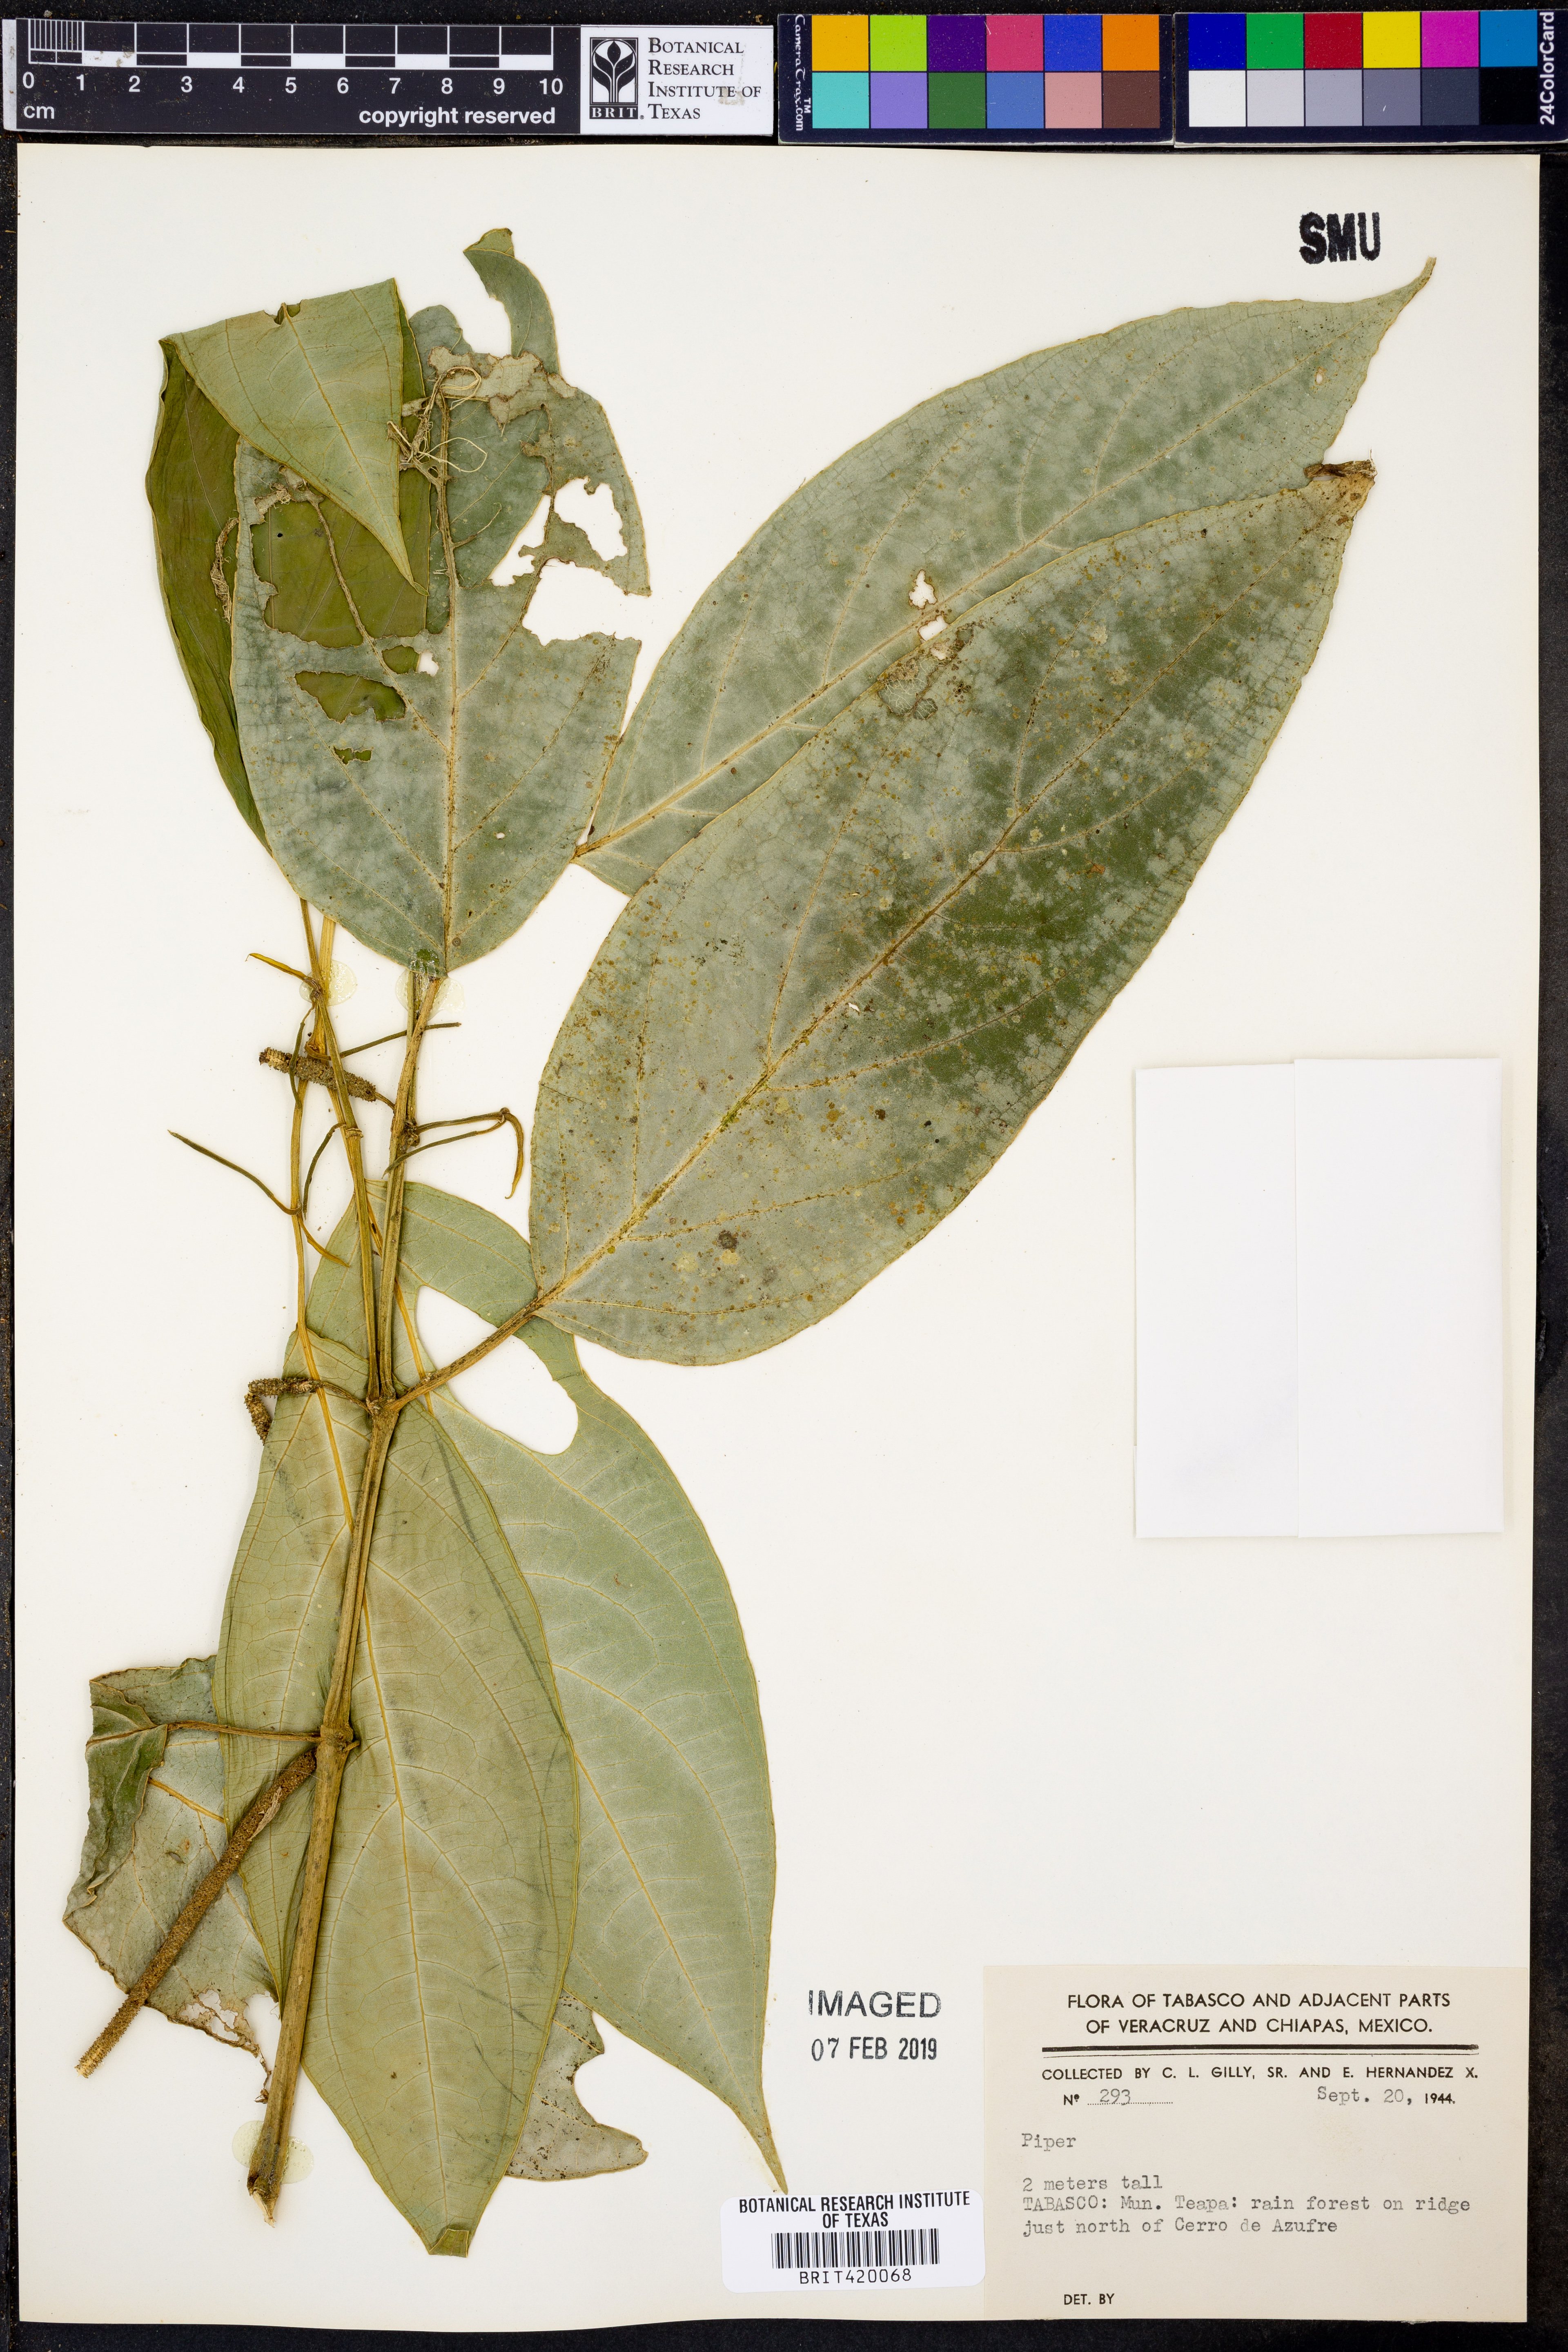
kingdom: Plantae
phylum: Tracheophyta
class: Magnoliopsida
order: Piperales
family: Piperaceae
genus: Piper
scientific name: Piper
